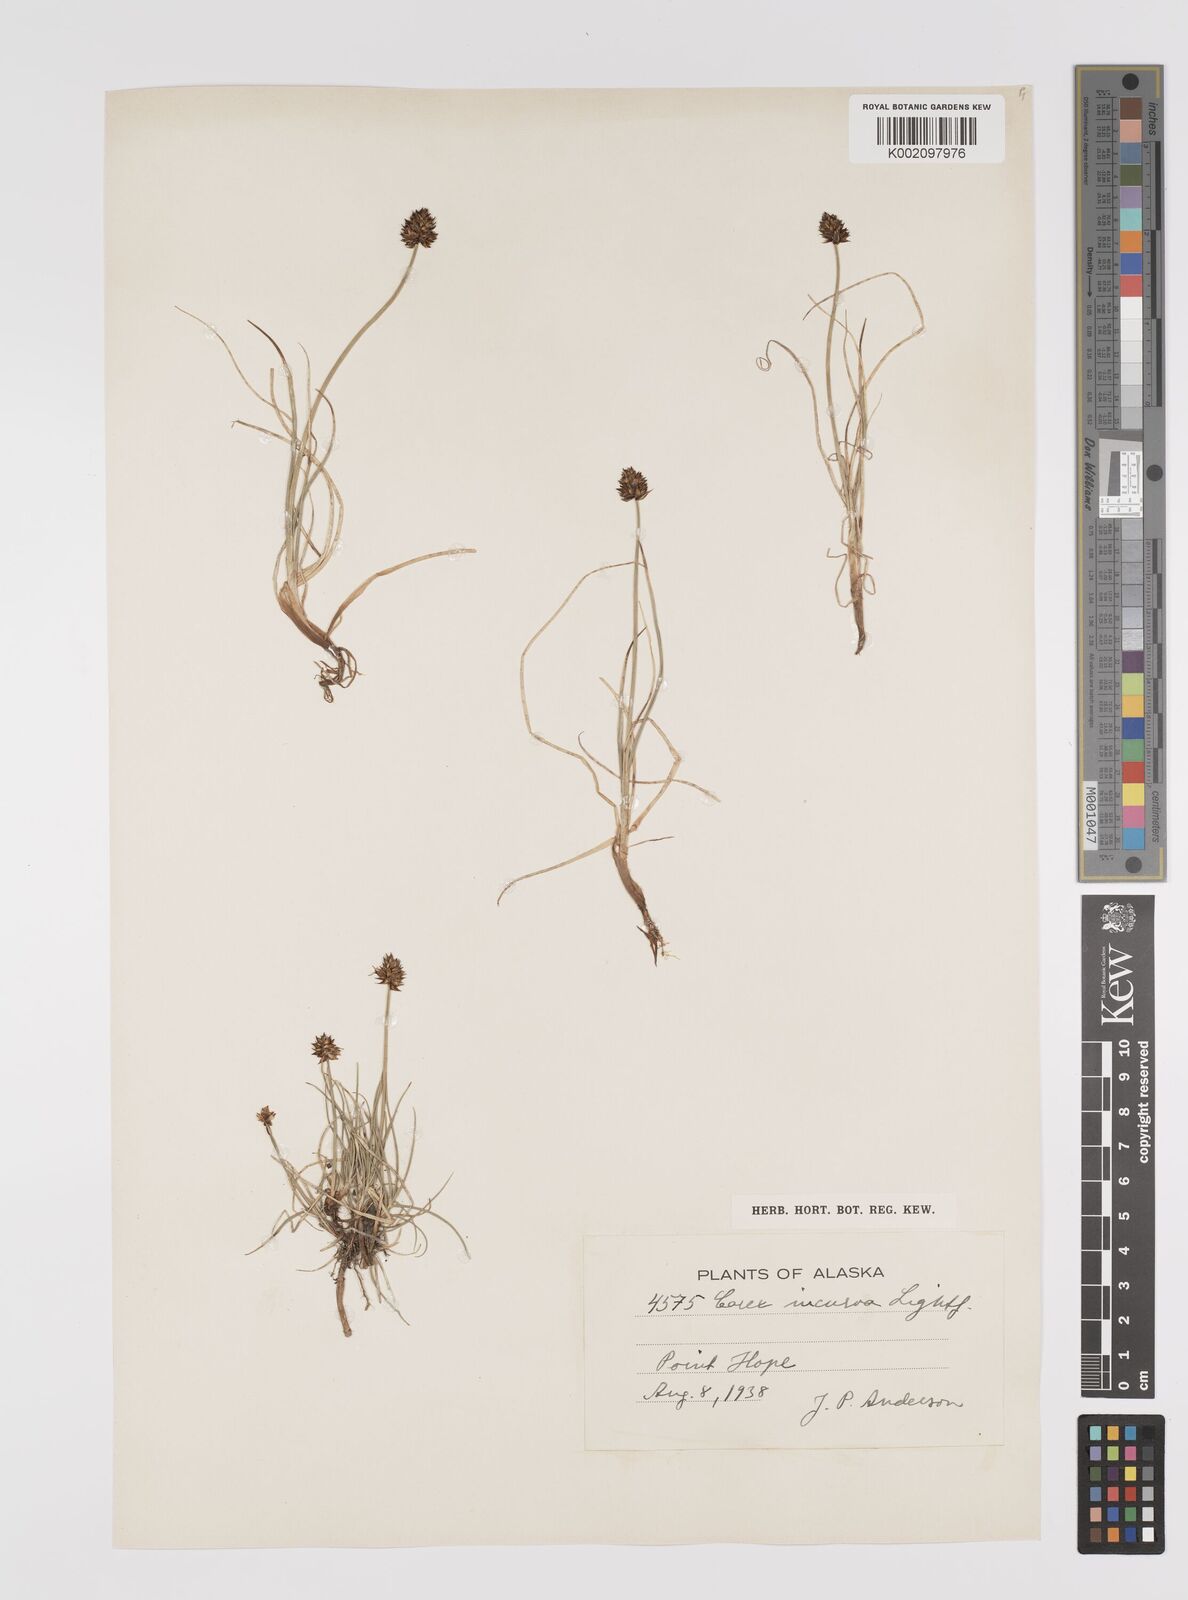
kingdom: Plantae
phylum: Tracheophyta
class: Liliopsida
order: Poales
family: Cyperaceae
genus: Carex
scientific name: Carex maritima
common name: Curved sedge
